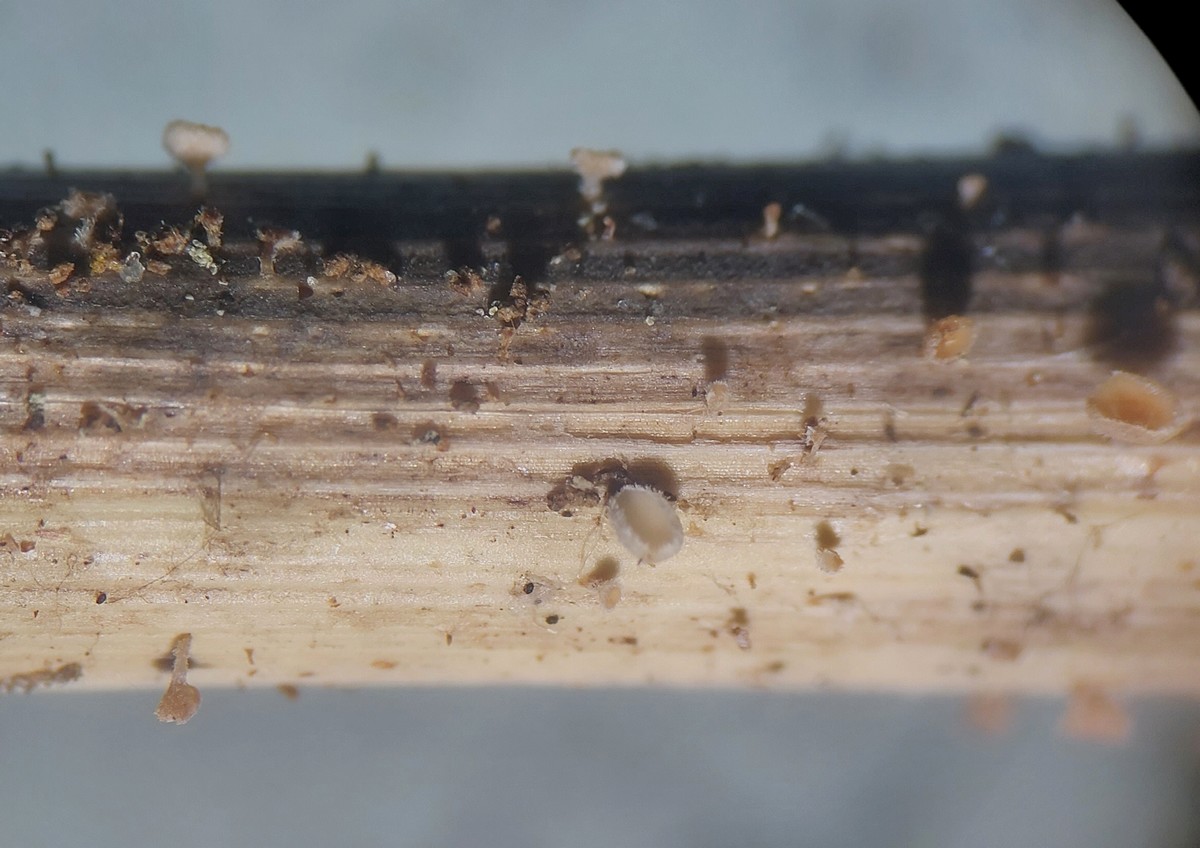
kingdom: Fungi
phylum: Ascomycota
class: Leotiomycetes
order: Helotiales
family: Lachnaceae
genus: Lachnum
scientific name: Lachnum tenuipilosum
